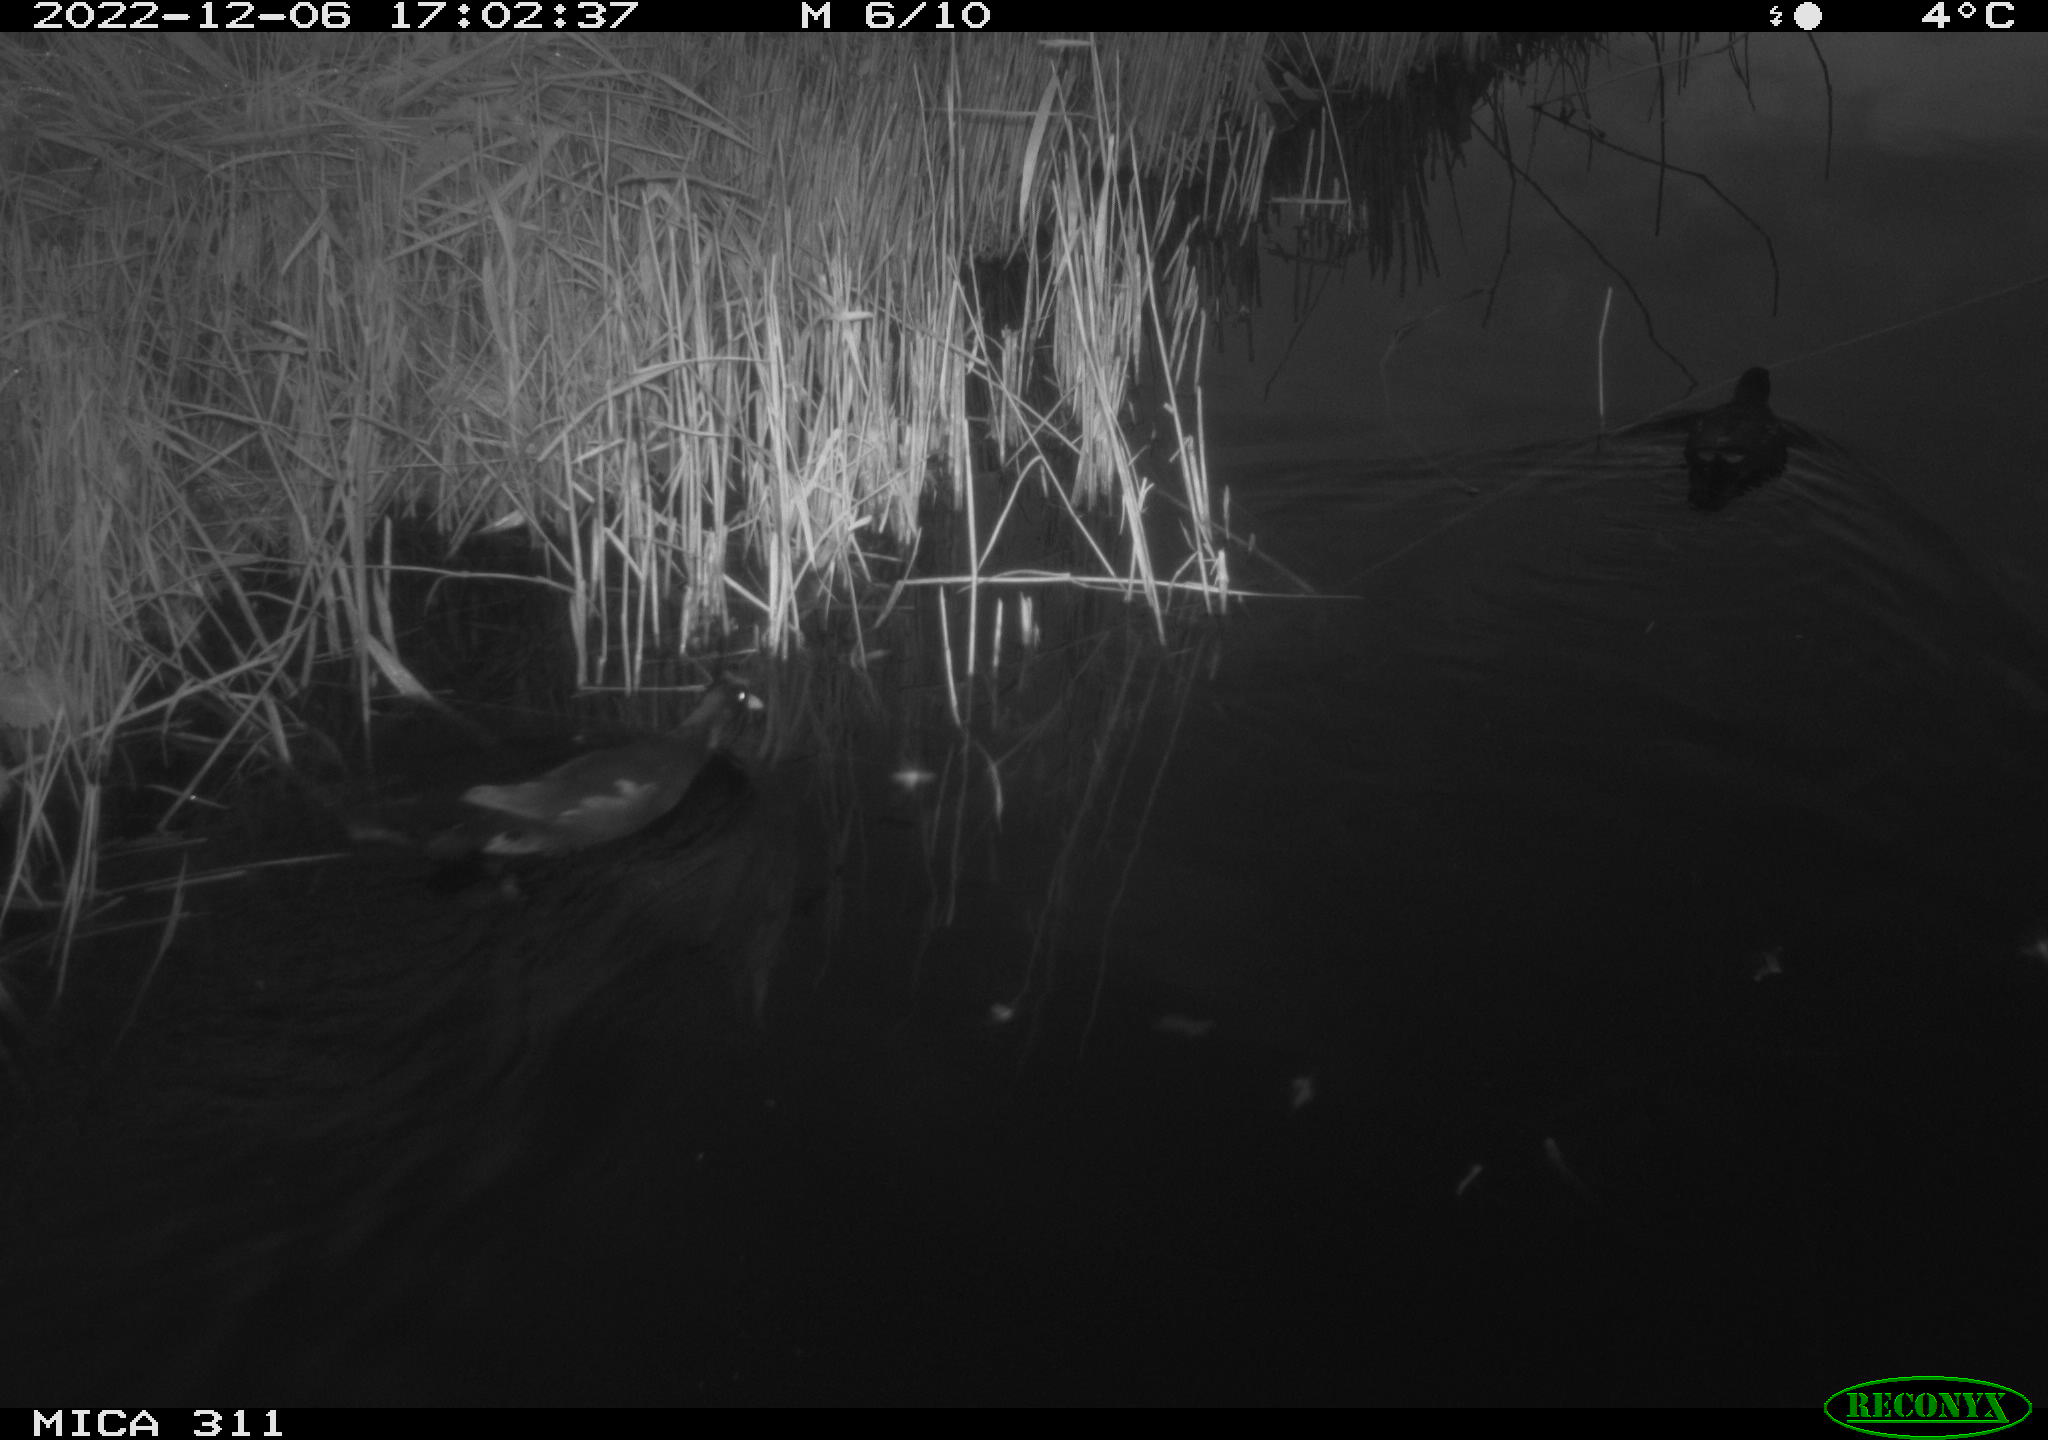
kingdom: Animalia
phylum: Chordata
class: Aves
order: Gruiformes
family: Rallidae
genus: Gallinula
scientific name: Gallinula chloropus
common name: Common moorhen
